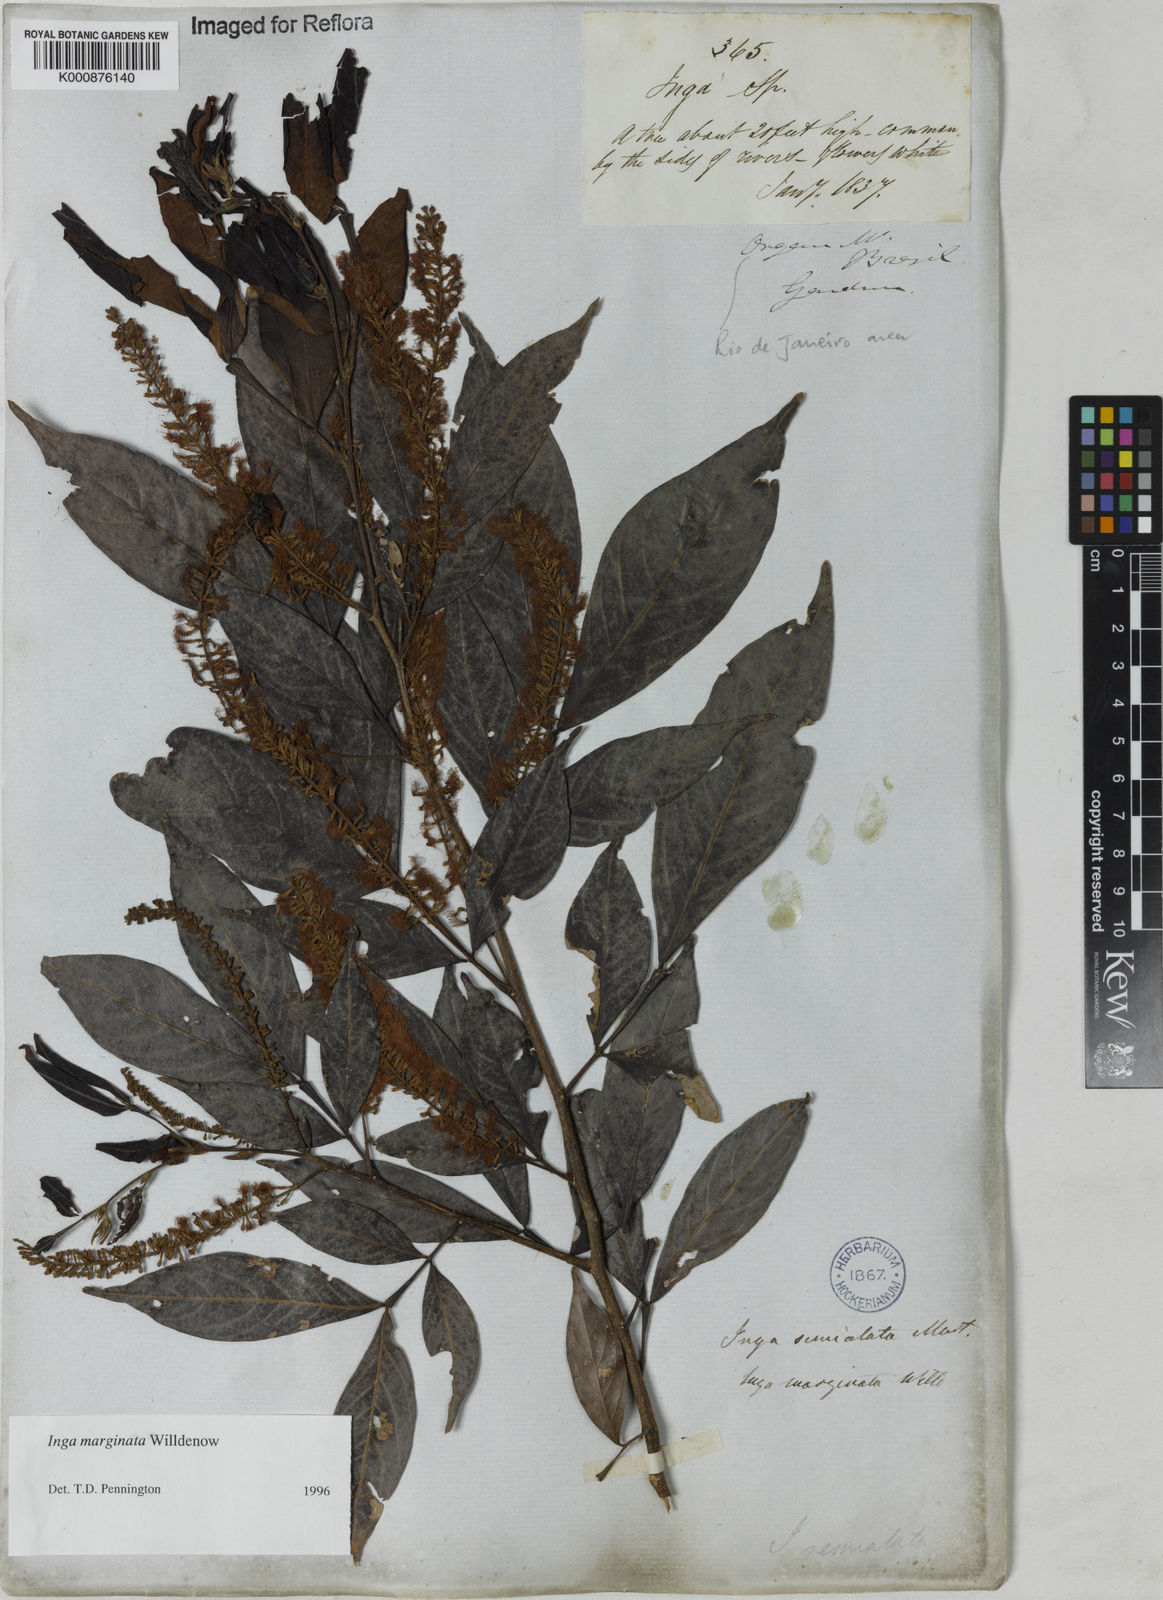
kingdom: Plantae
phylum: Tracheophyta
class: Magnoliopsida
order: Fabales
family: Fabaceae
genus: Inga
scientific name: Inga marginata
